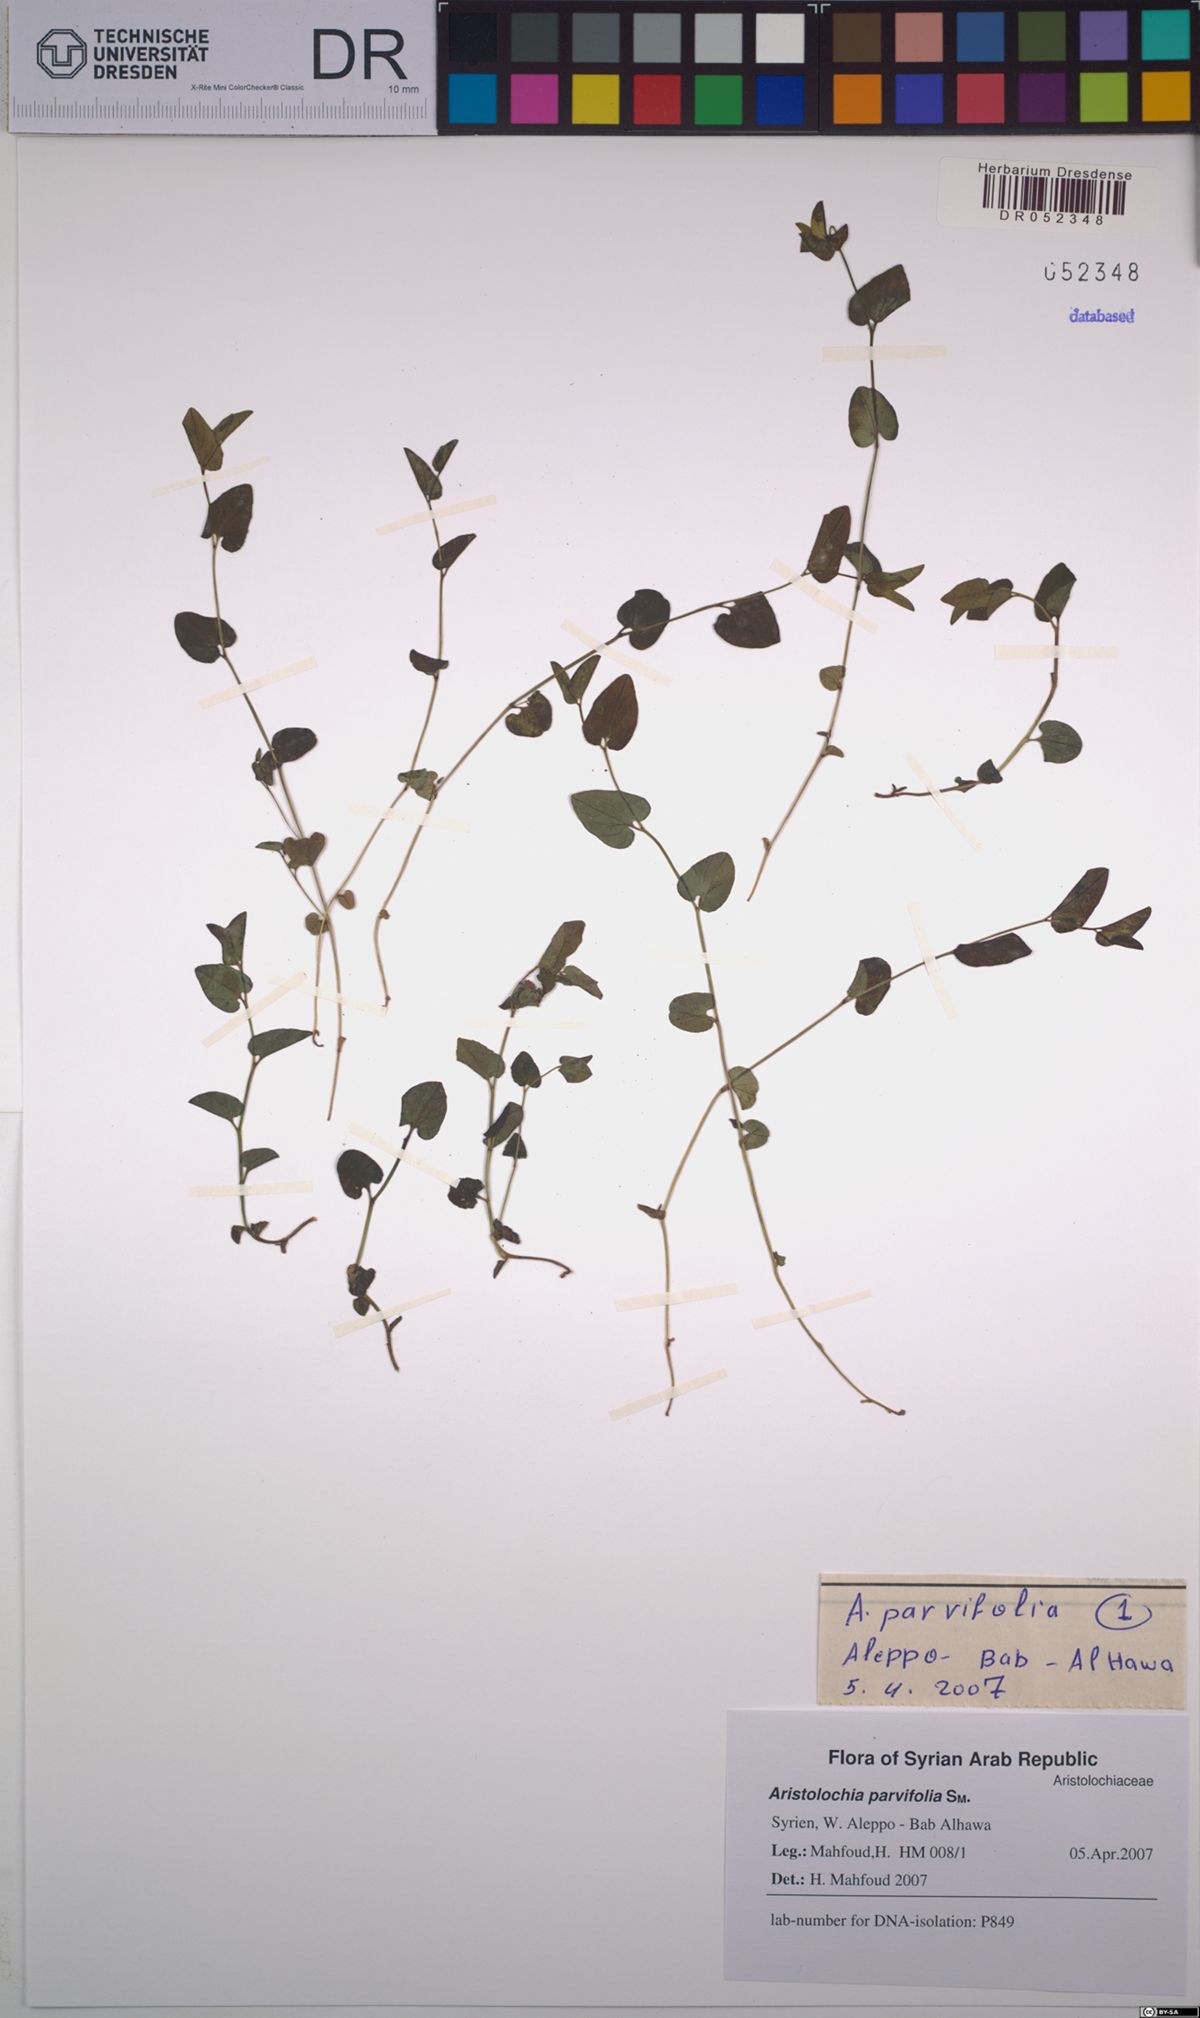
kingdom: Plantae
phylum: Tracheophyta
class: Magnoliopsida
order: Piperales
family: Aristolochiaceae
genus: Aristolochia
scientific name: Aristolochia parvifolia
